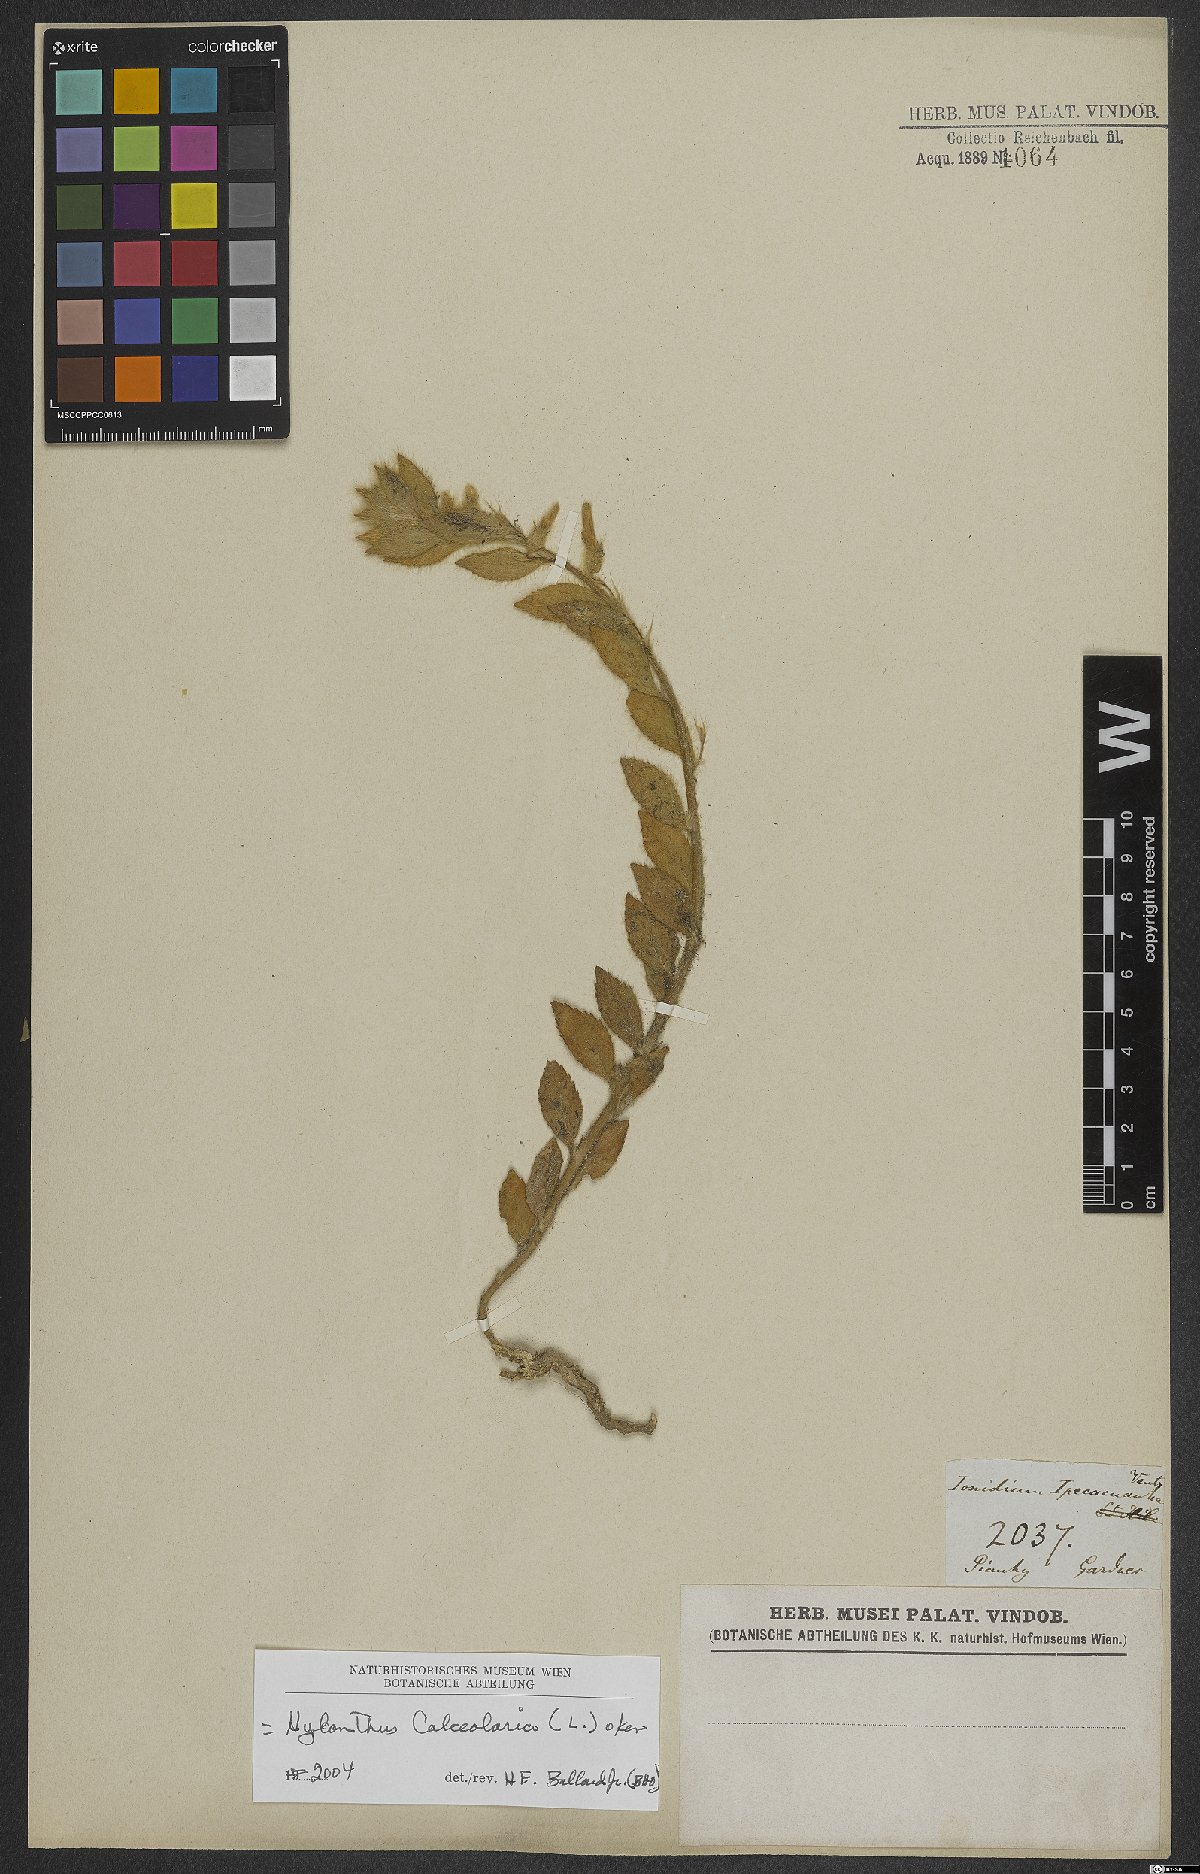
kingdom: Plantae
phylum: Tracheophyta
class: Magnoliopsida
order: Malpighiales
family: Violaceae
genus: Pombalia
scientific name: Pombalia calceolaria
